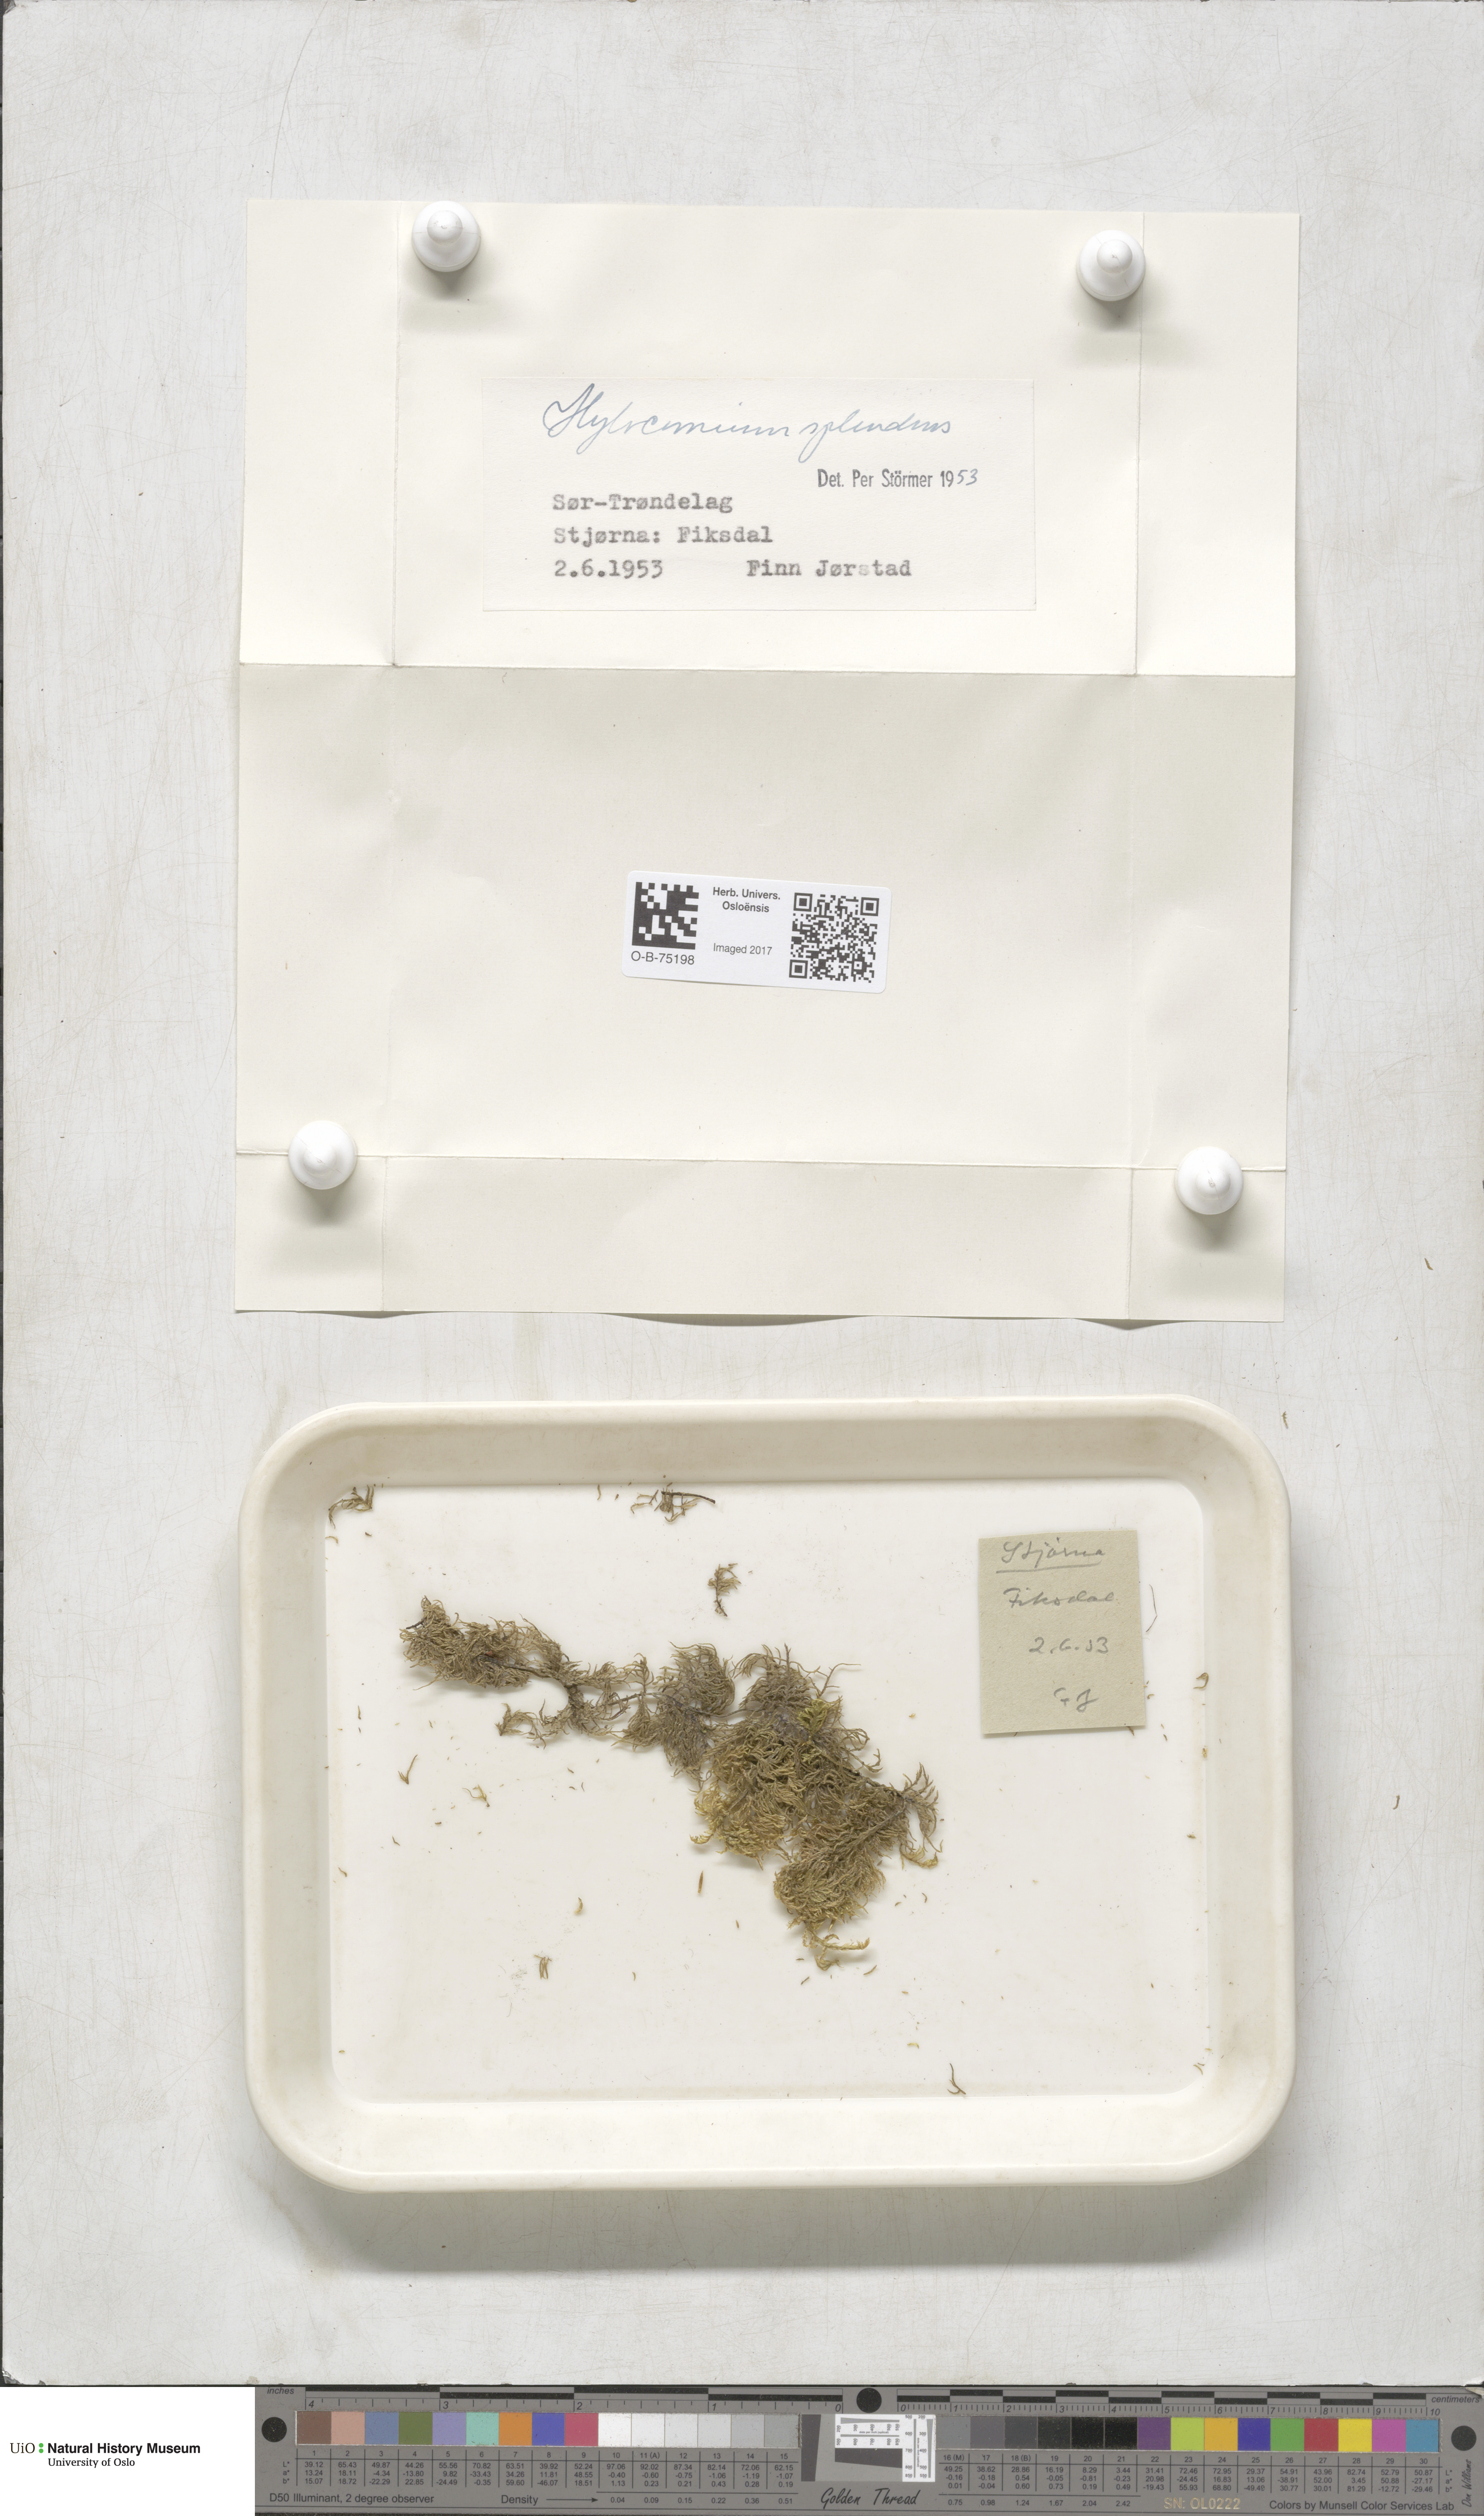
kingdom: Plantae
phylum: Bryophyta
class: Bryopsida
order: Hypnales
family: Hylocomiaceae
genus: Hylocomium
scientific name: Hylocomium splendens
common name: Stairstep moss
